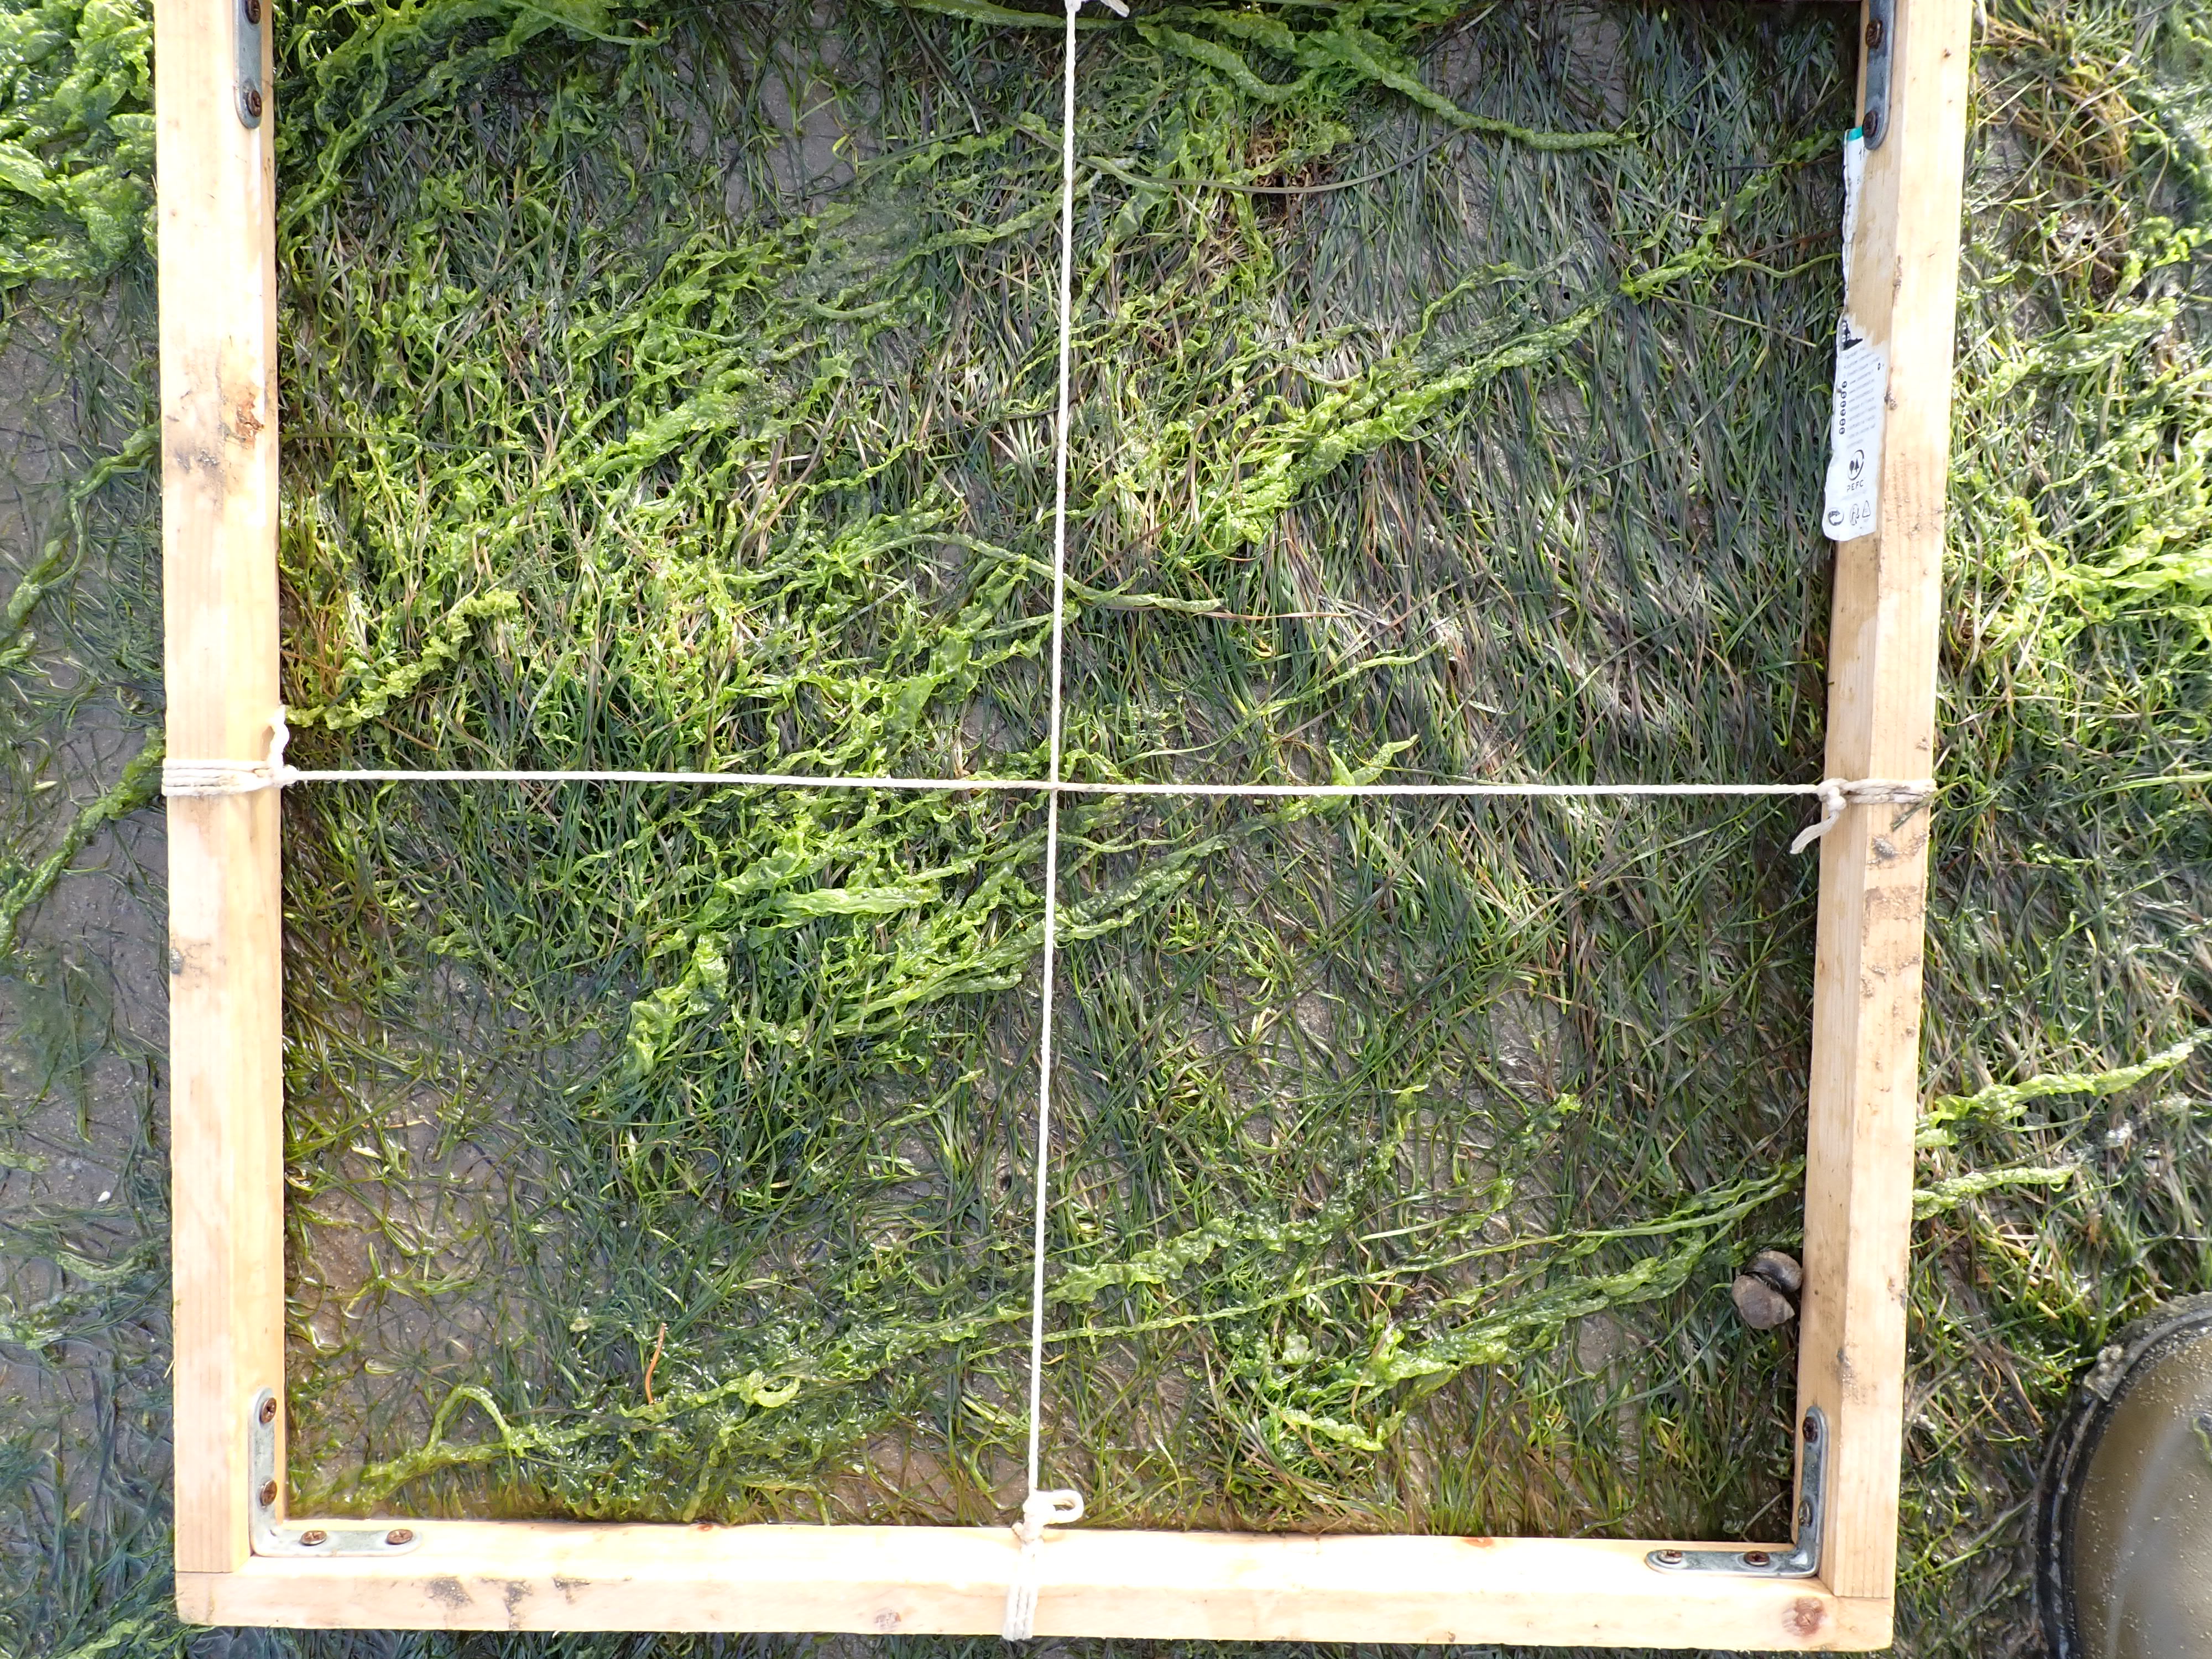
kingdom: Plantae
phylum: Chlorophyta
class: Ulvophyceae
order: Ulvales
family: Ulvaceae
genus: Ulva
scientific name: Ulva
